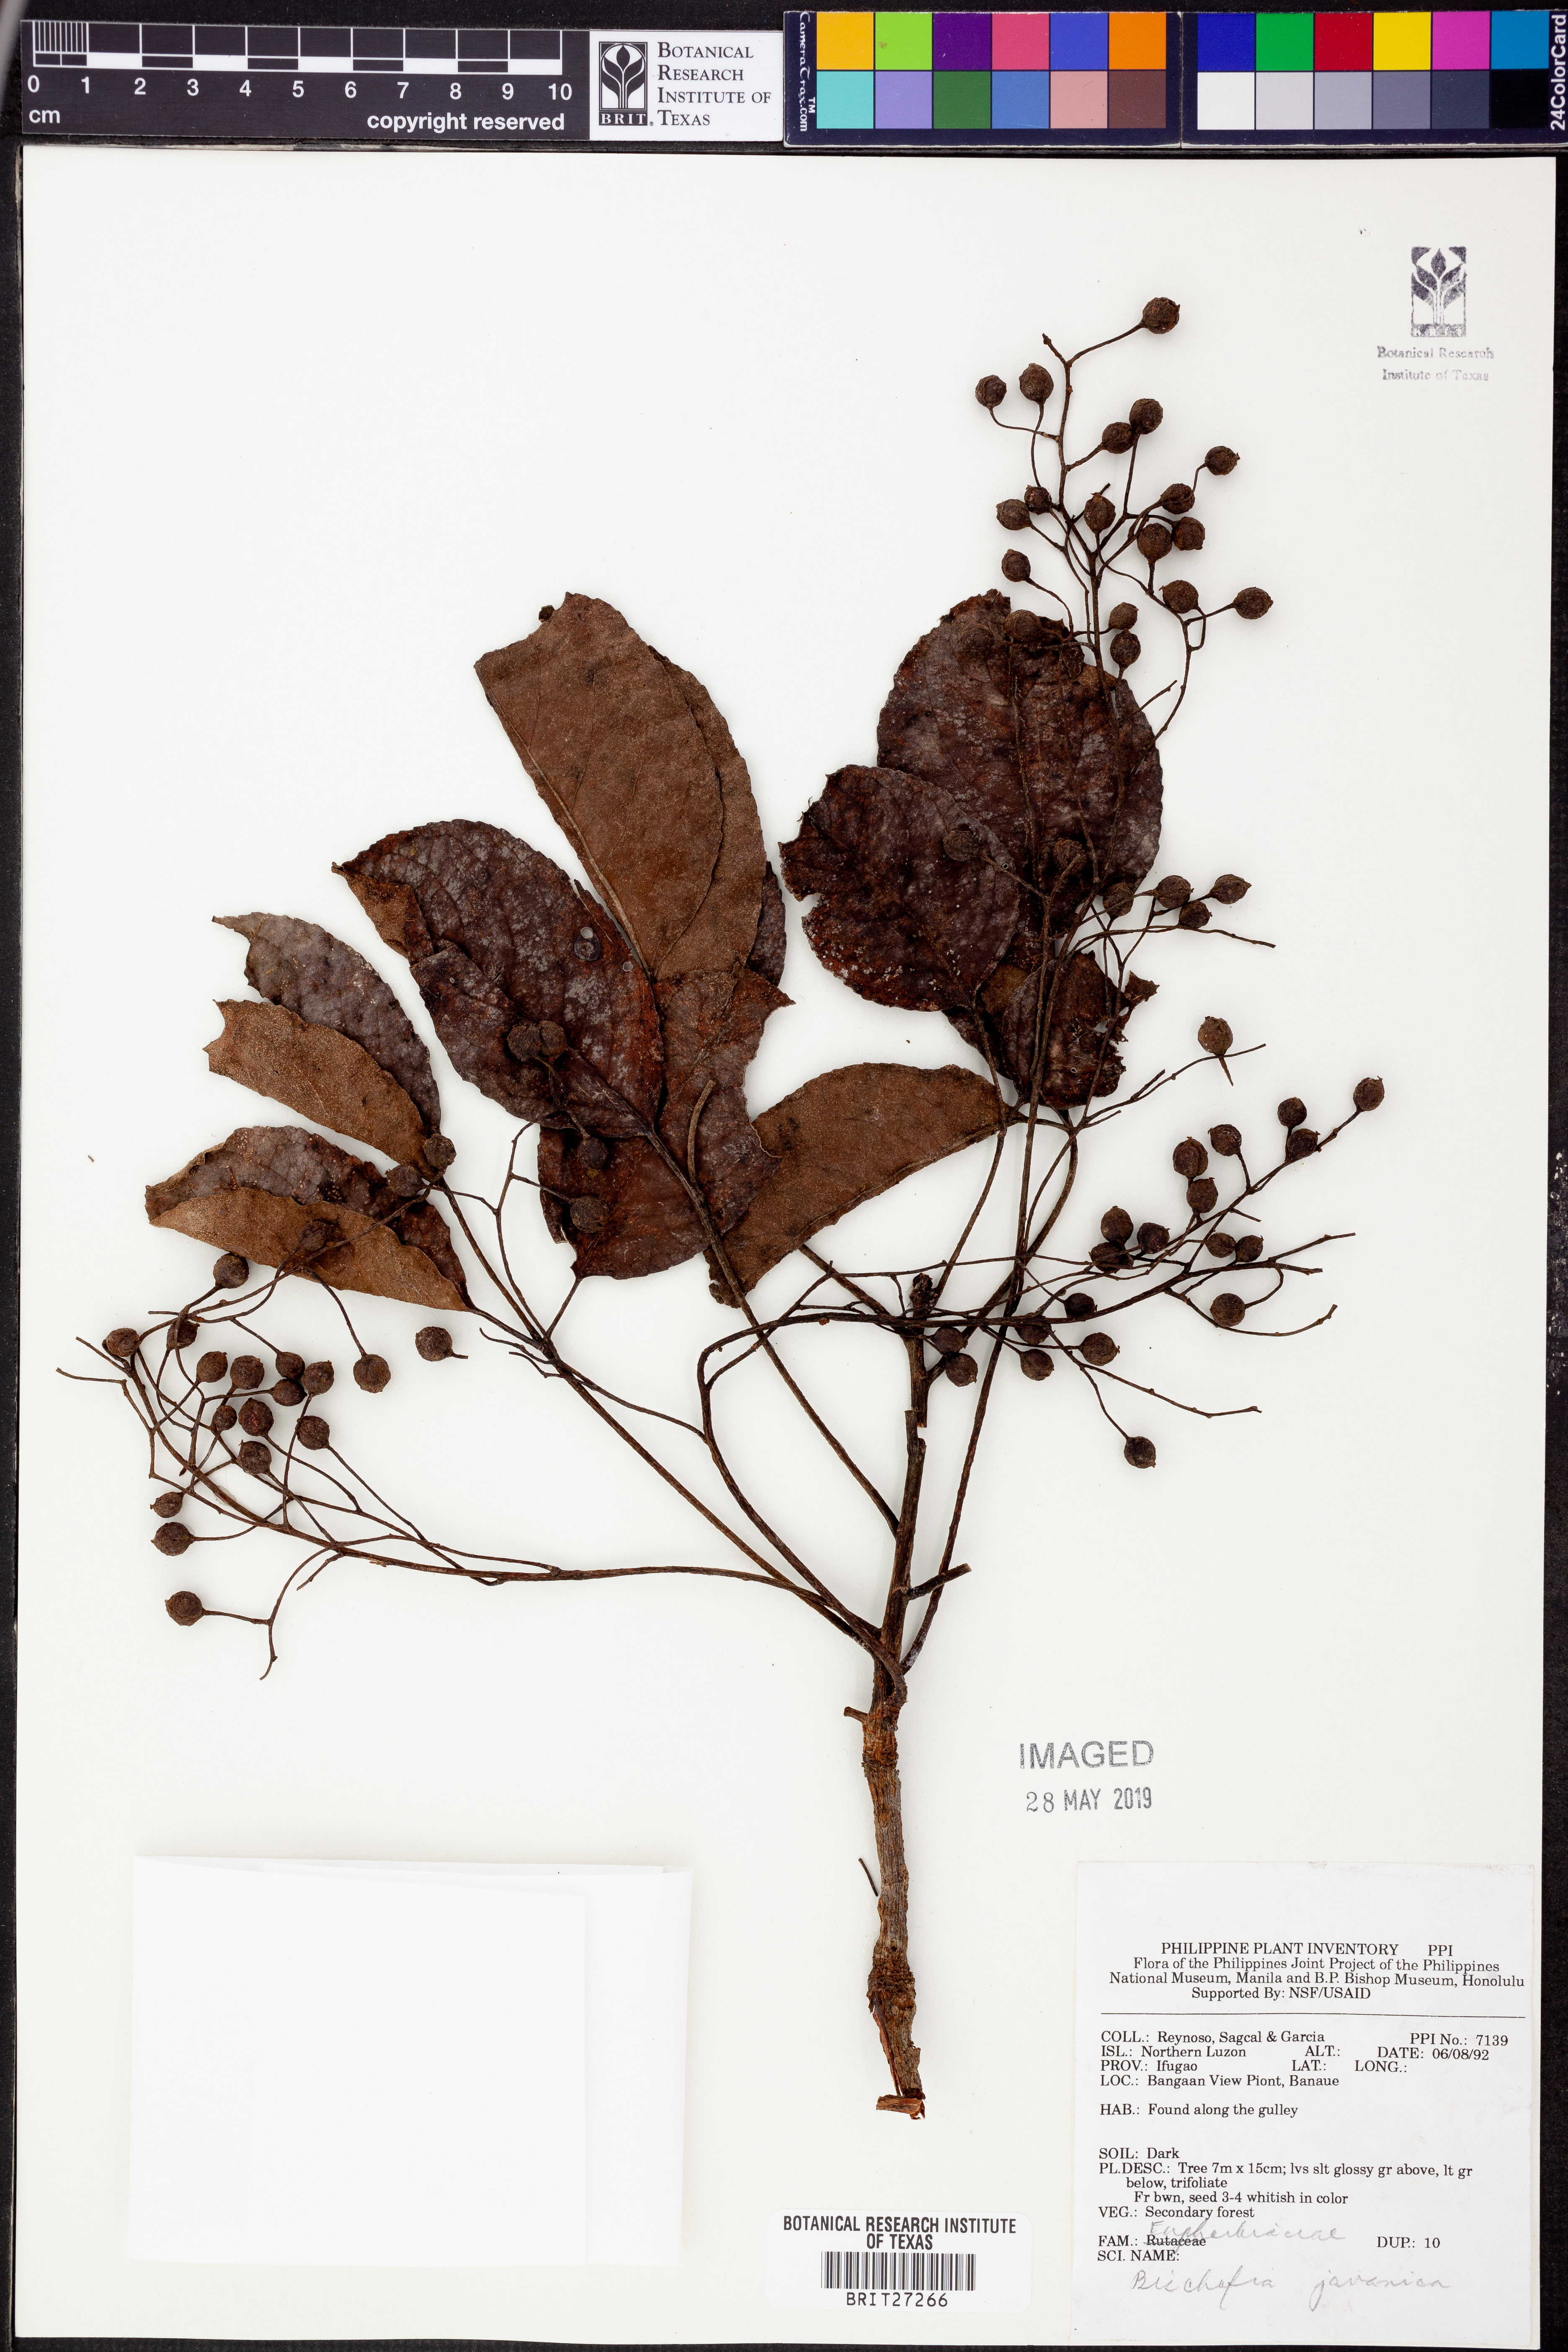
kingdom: Plantae
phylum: Tracheophyta
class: Magnoliopsida
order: Malpighiales
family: Phyllanthaceae
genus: Bischofia
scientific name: Bischofia javanica
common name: Javanese bishopwood
